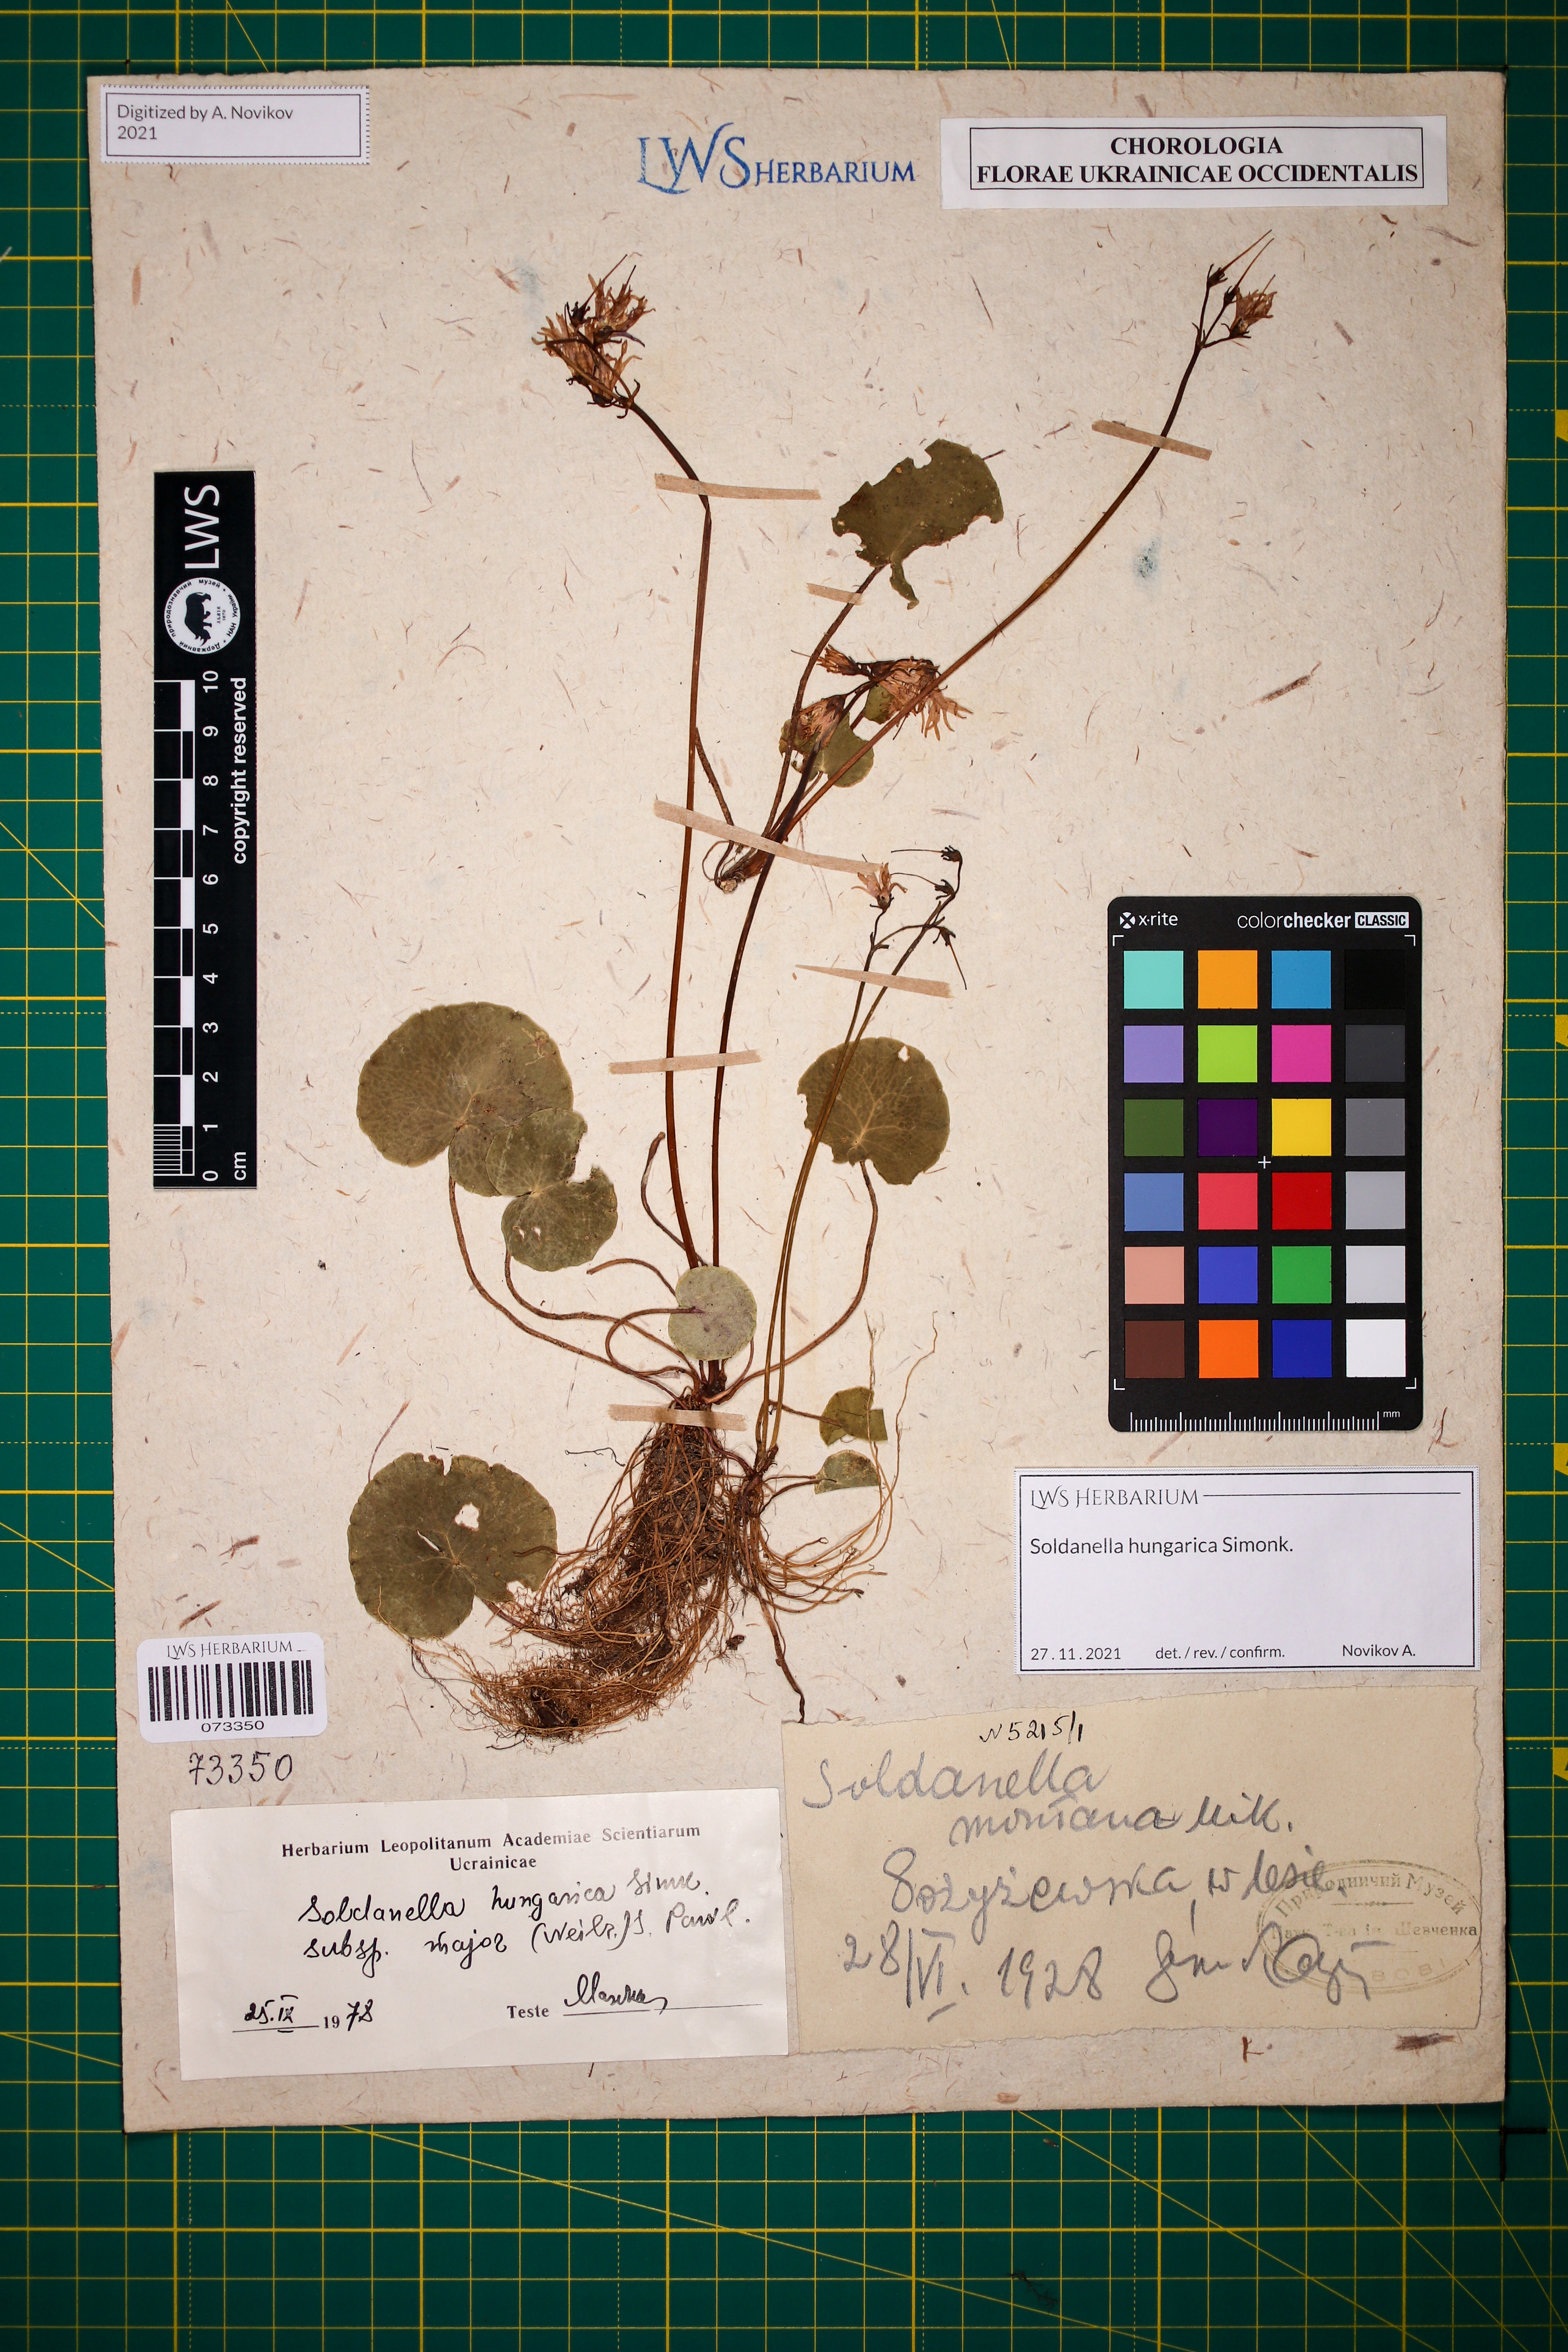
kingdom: Plantae
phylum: Tracheophyta
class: Magnoliopsida
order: Ericales
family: Primulaceae
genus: Soldanella
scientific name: Soldanella hungarica
